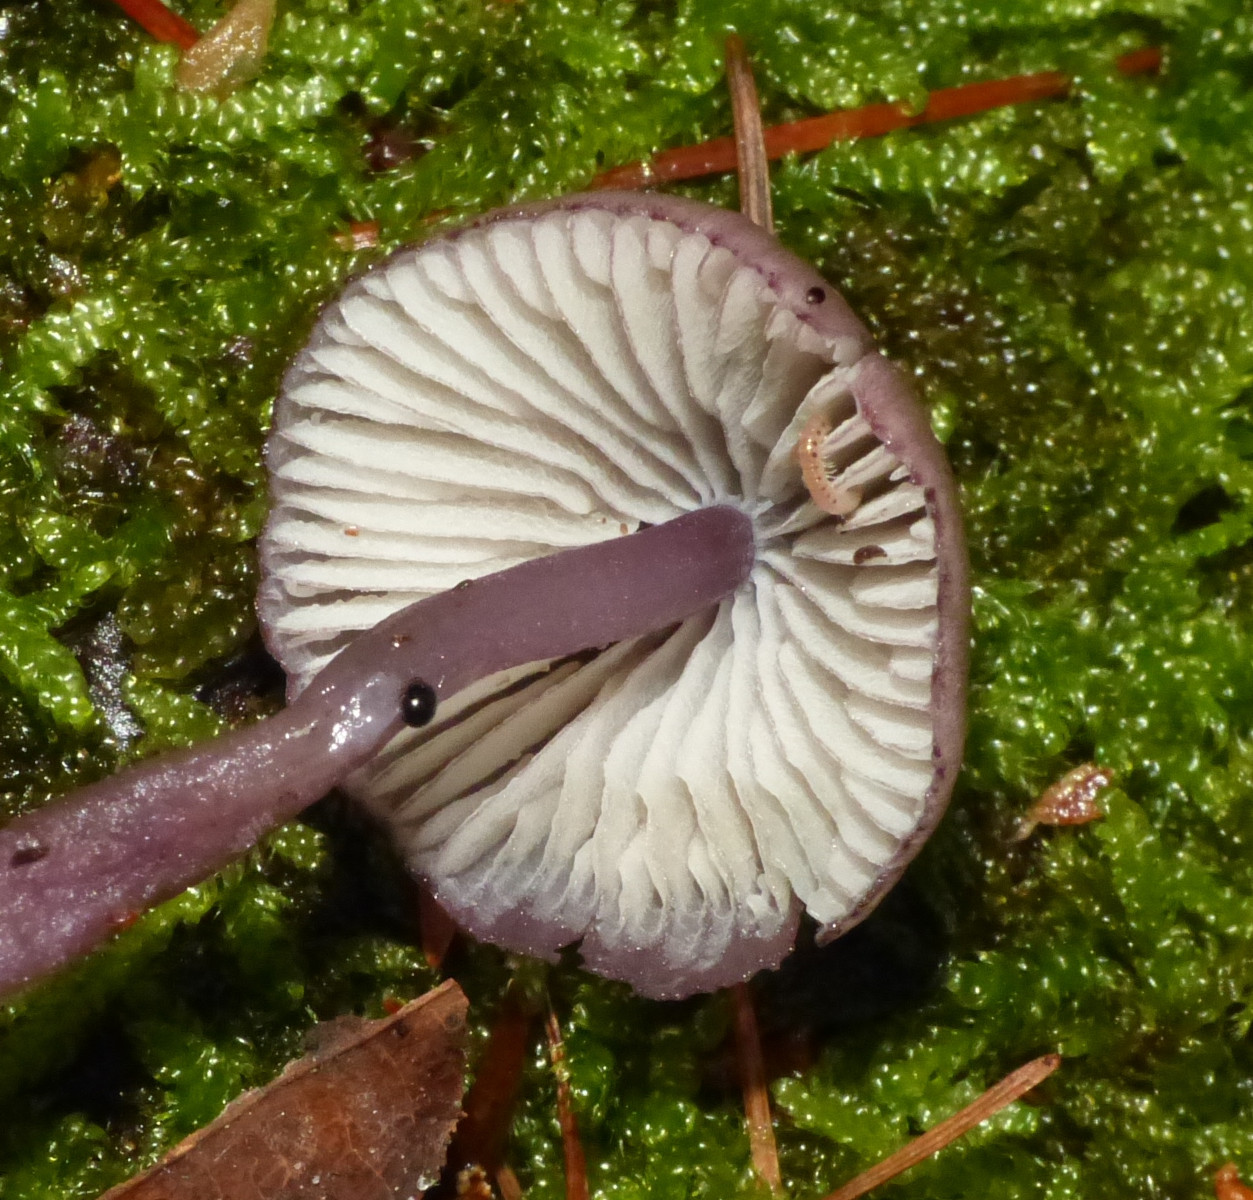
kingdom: Fungi
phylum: Basidiomycota
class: Agaricomycetes
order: Agaricales
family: Mycenaceae
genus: Mycena
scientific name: Mycena purpureofusca
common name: purpur-huesvamp
